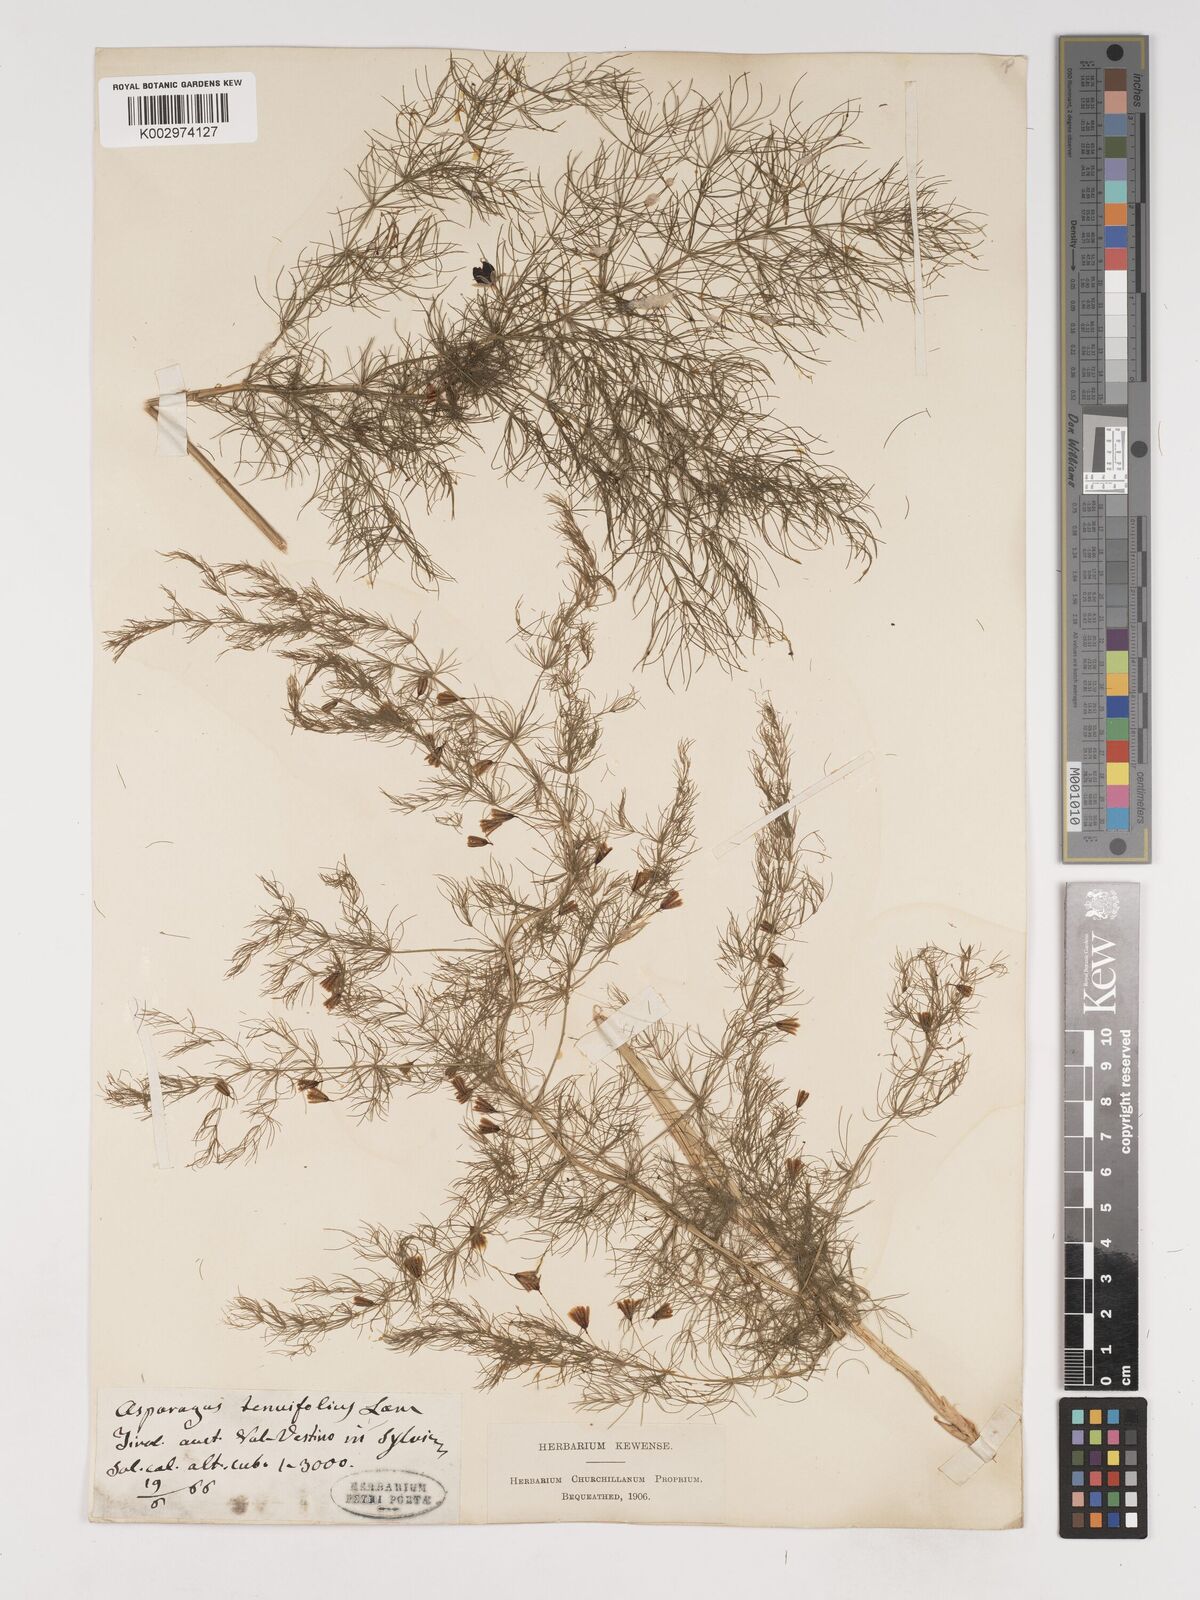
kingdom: Plantae
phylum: Tracheophyta
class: Liliopsida
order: Asparagales
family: Asparagaceae
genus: Asparagus
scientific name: Asparagus tenuifolius
